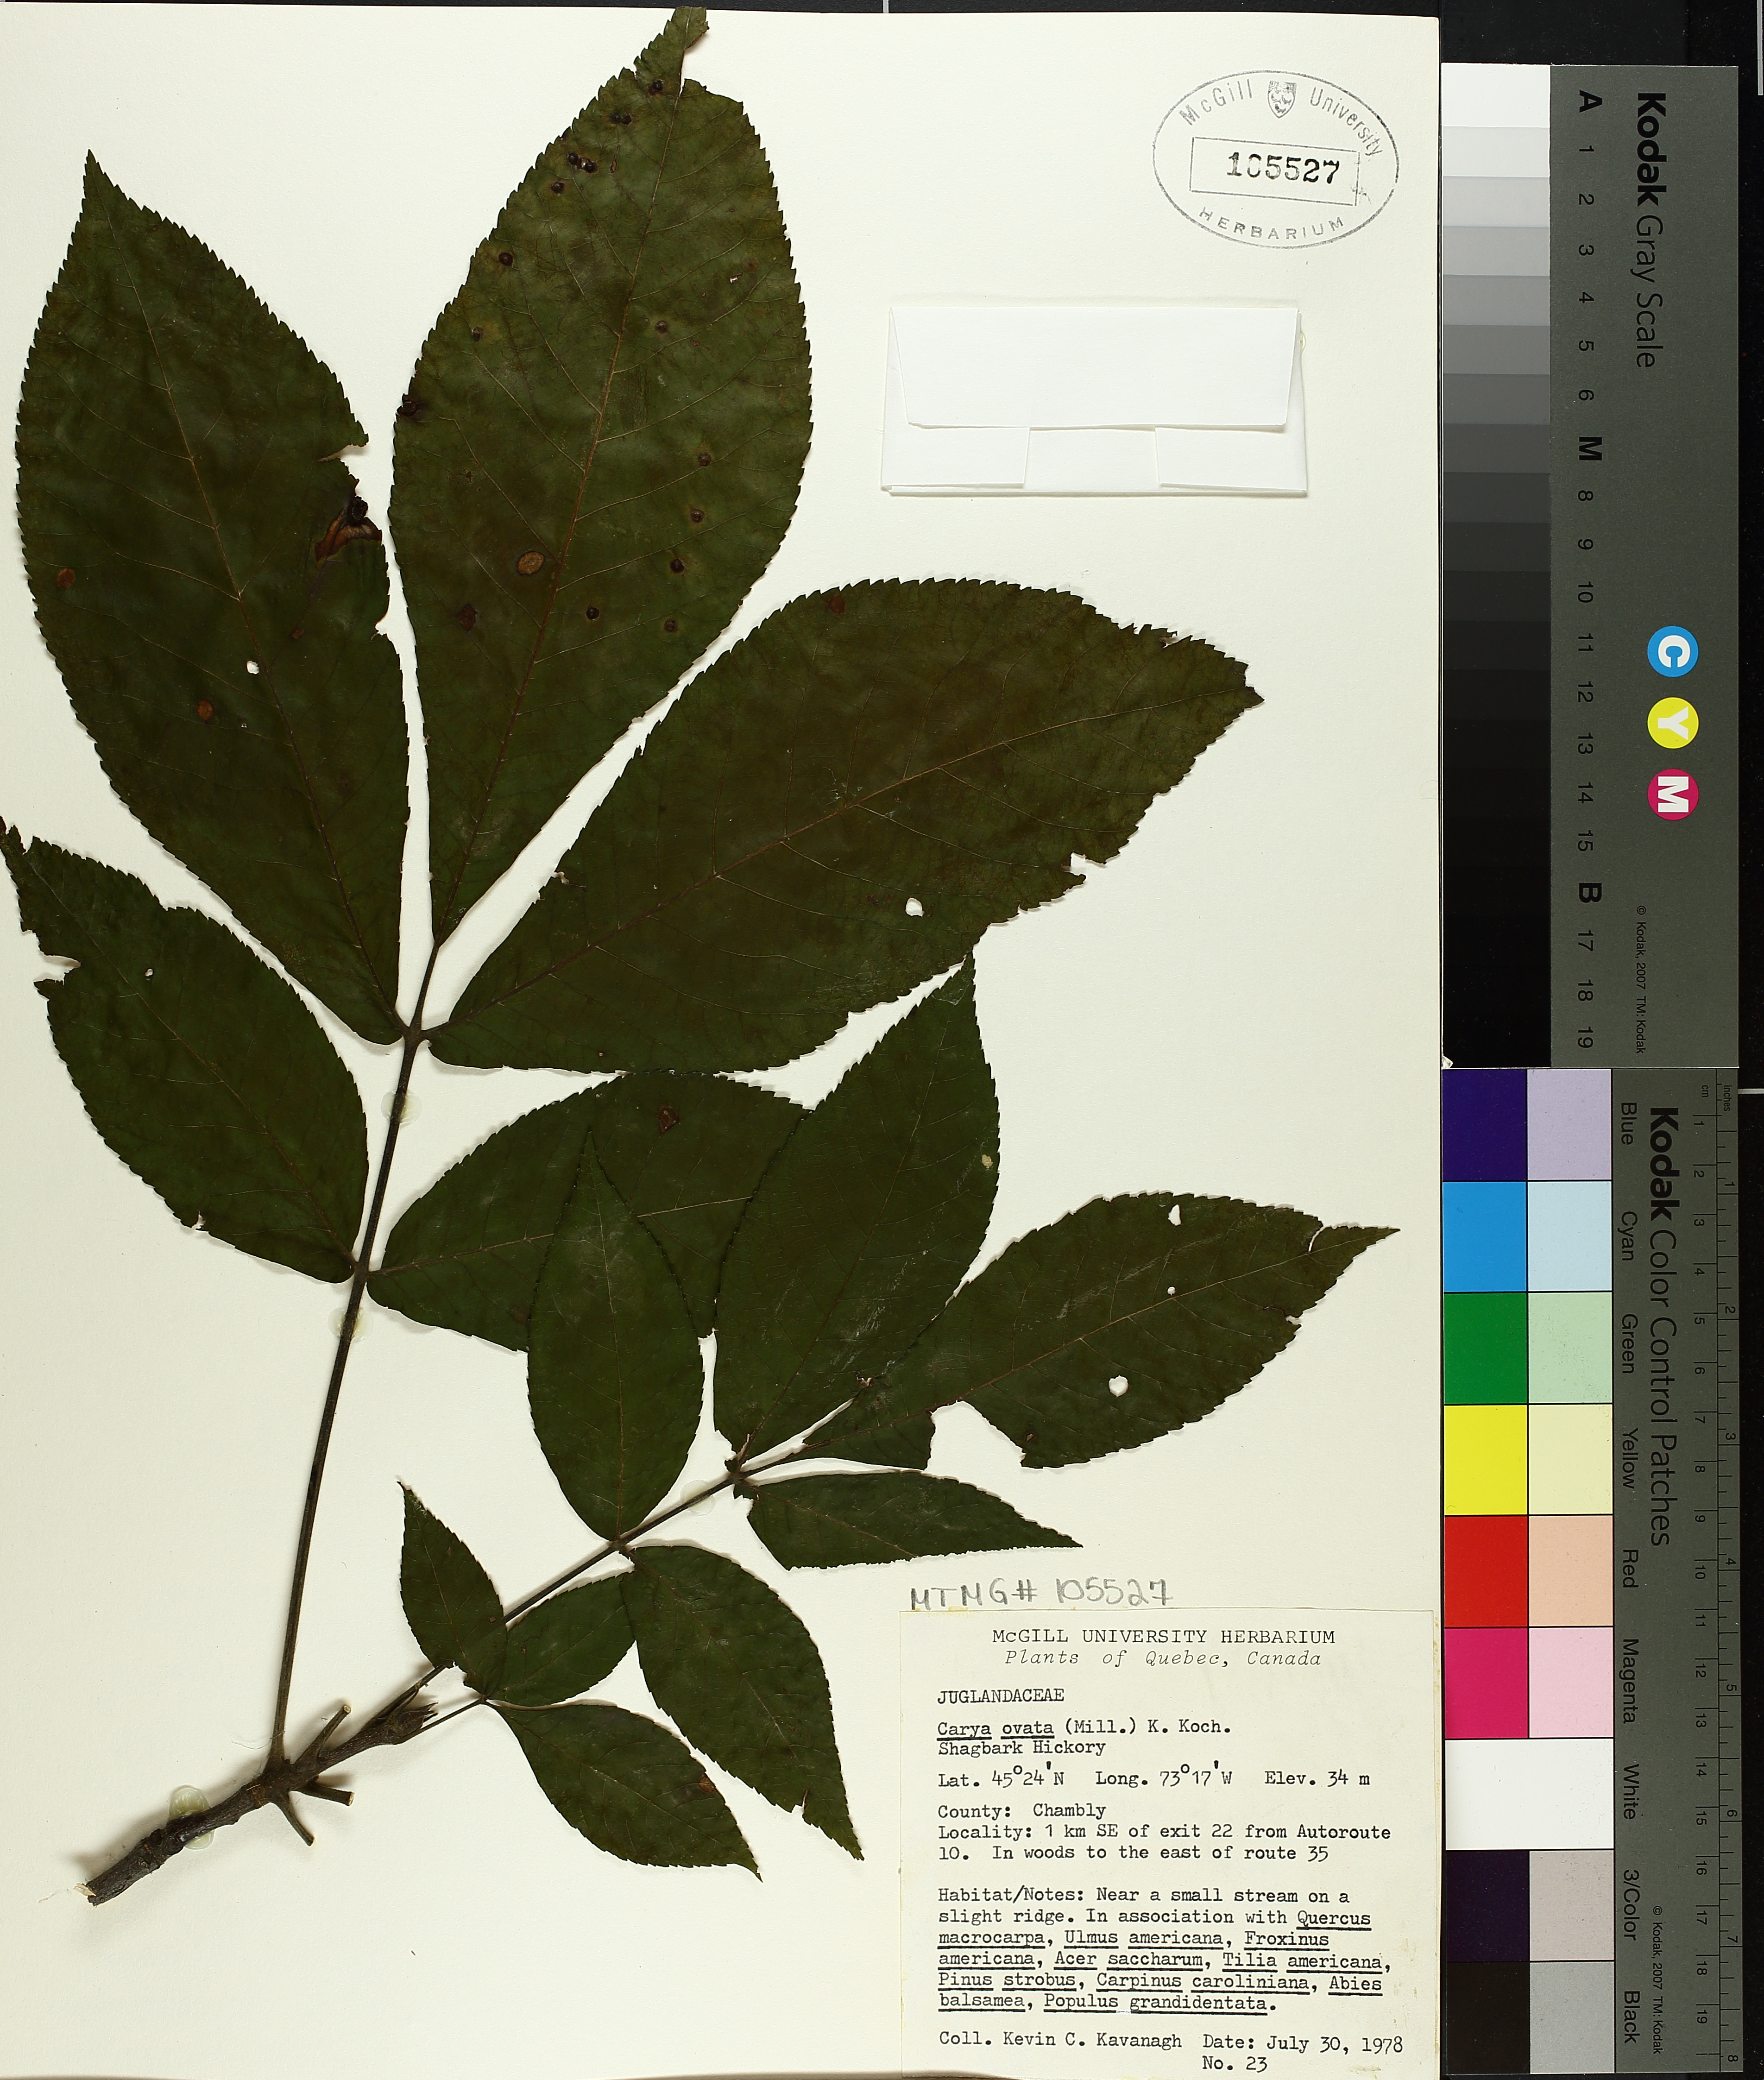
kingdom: Plantae
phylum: Tracheophyta
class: Magnoliopsida
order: Fagales
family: Juglandaceae
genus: Carya
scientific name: Carya ovata
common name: Shagbark hickory
